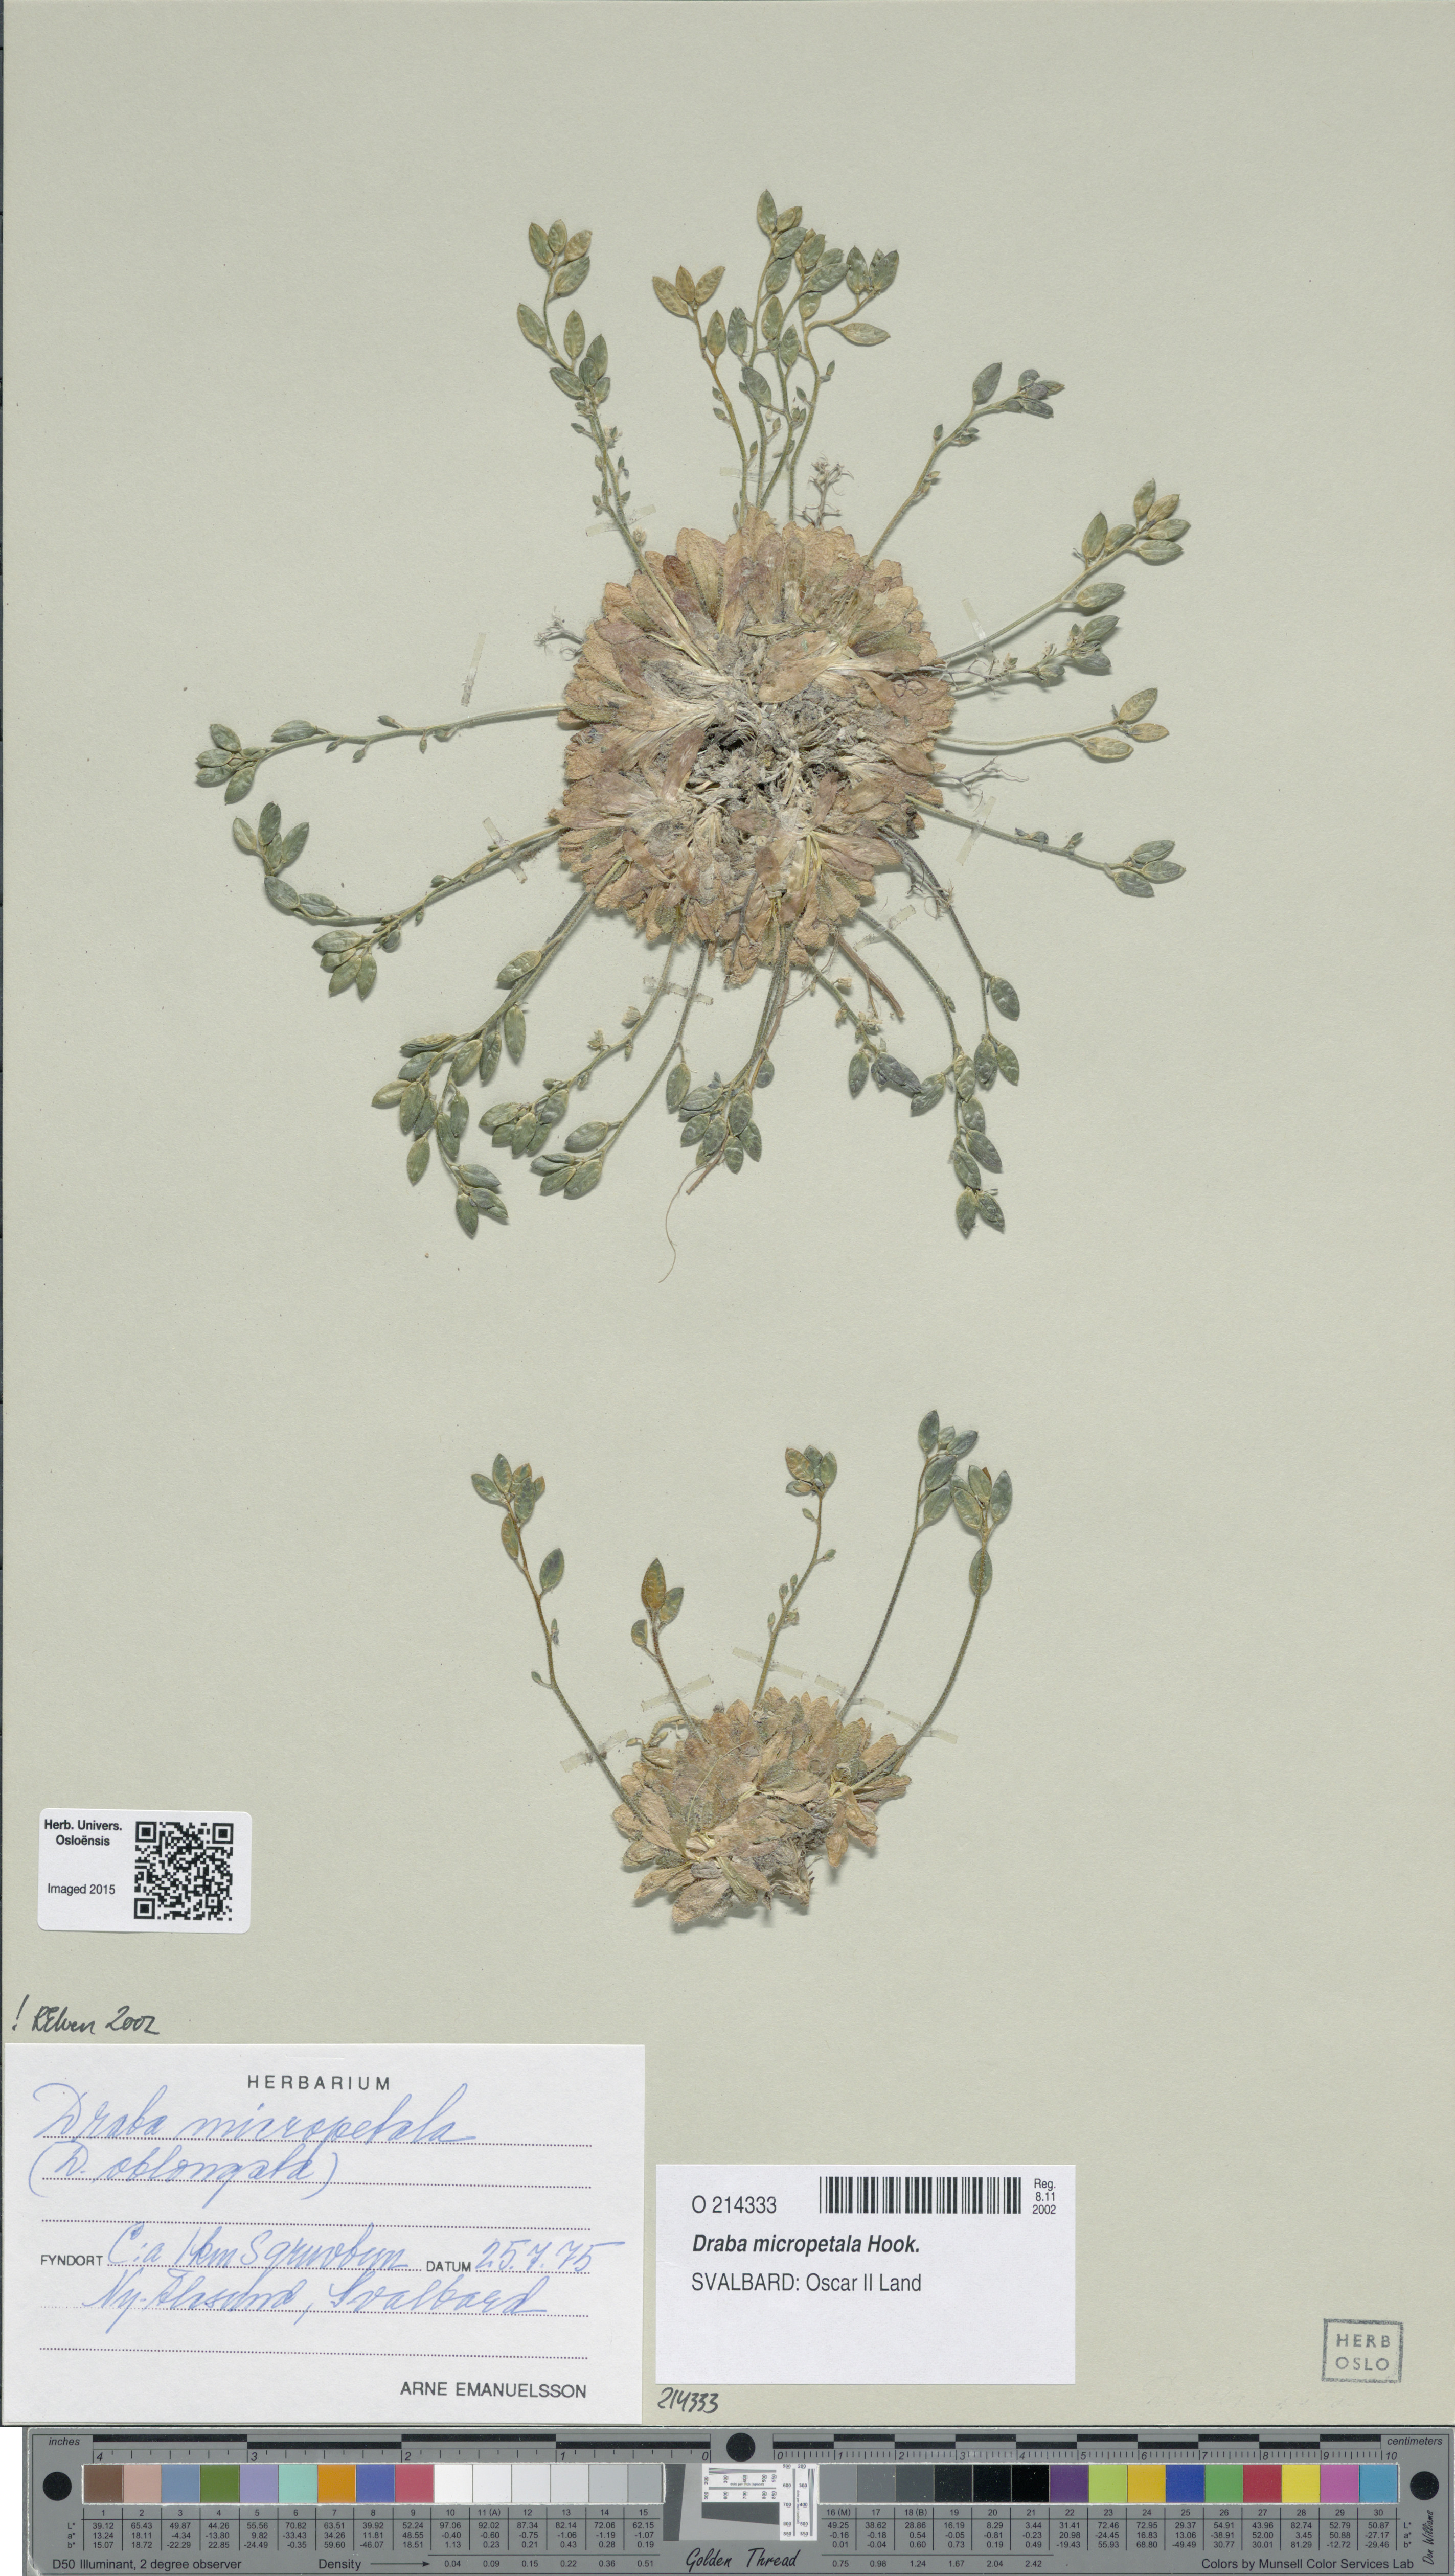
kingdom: Plantae
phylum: Tracheophyta
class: Magnoliopsida
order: Brassicales
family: Brassicaceae
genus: Draba
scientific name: Draba micropetala
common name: Small-flowered draba
